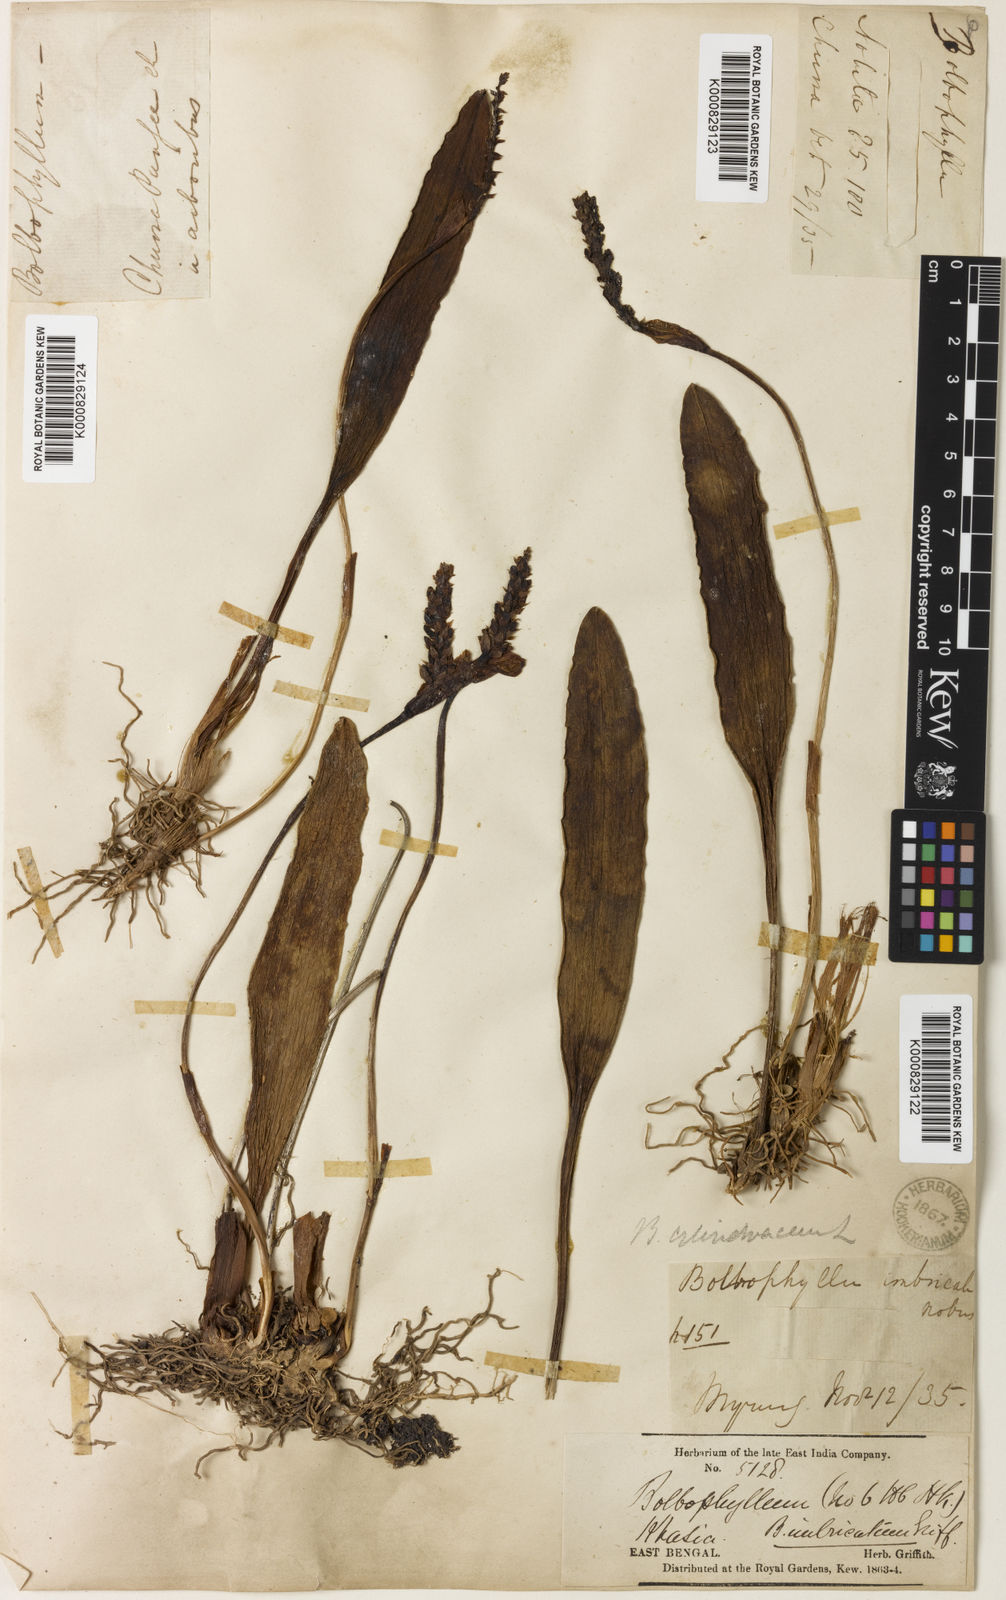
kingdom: Plantae
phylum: Tracheophyta
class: Liliopsida
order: Asparagales
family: Orchidaceae
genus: Bulbophyllum
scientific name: Bulbophyllum cylindraceum
